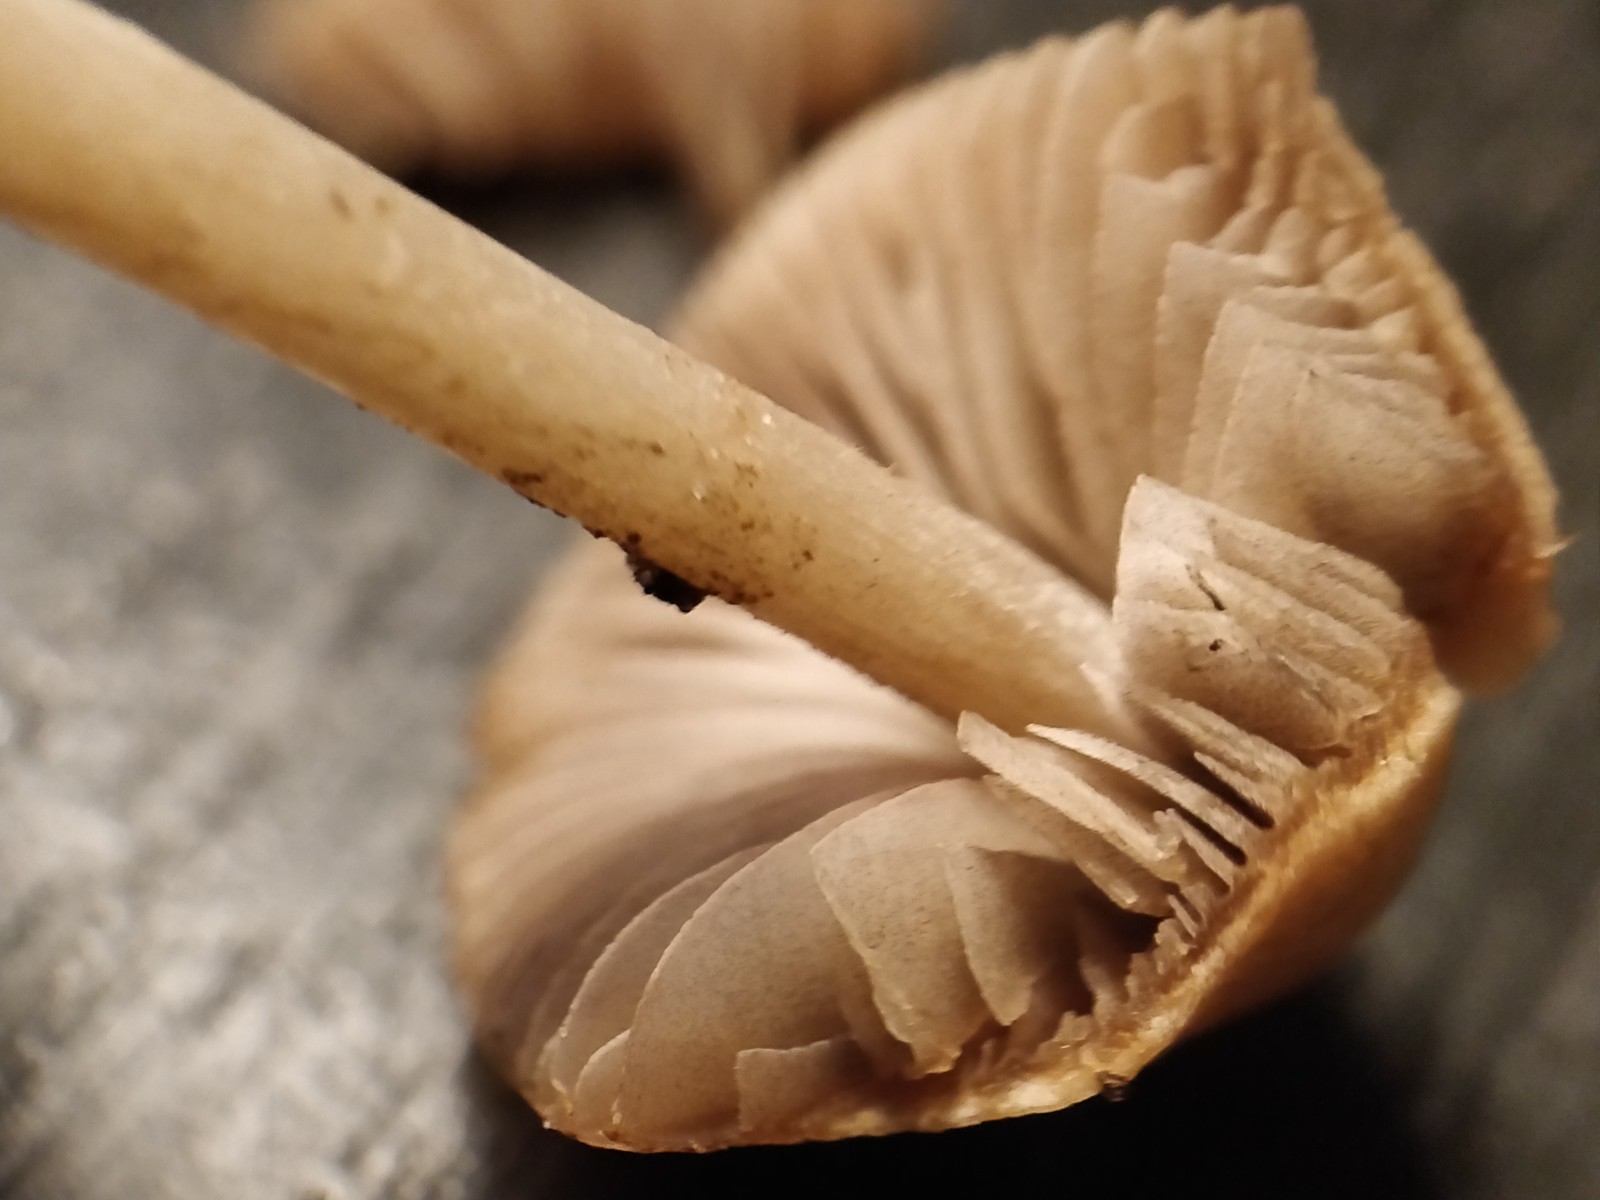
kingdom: Fungi
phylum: Basidiomycota
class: Agaricomycetes
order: Agaricales
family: Psathyrellaceae
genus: Psathyrella
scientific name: Psathyrella
